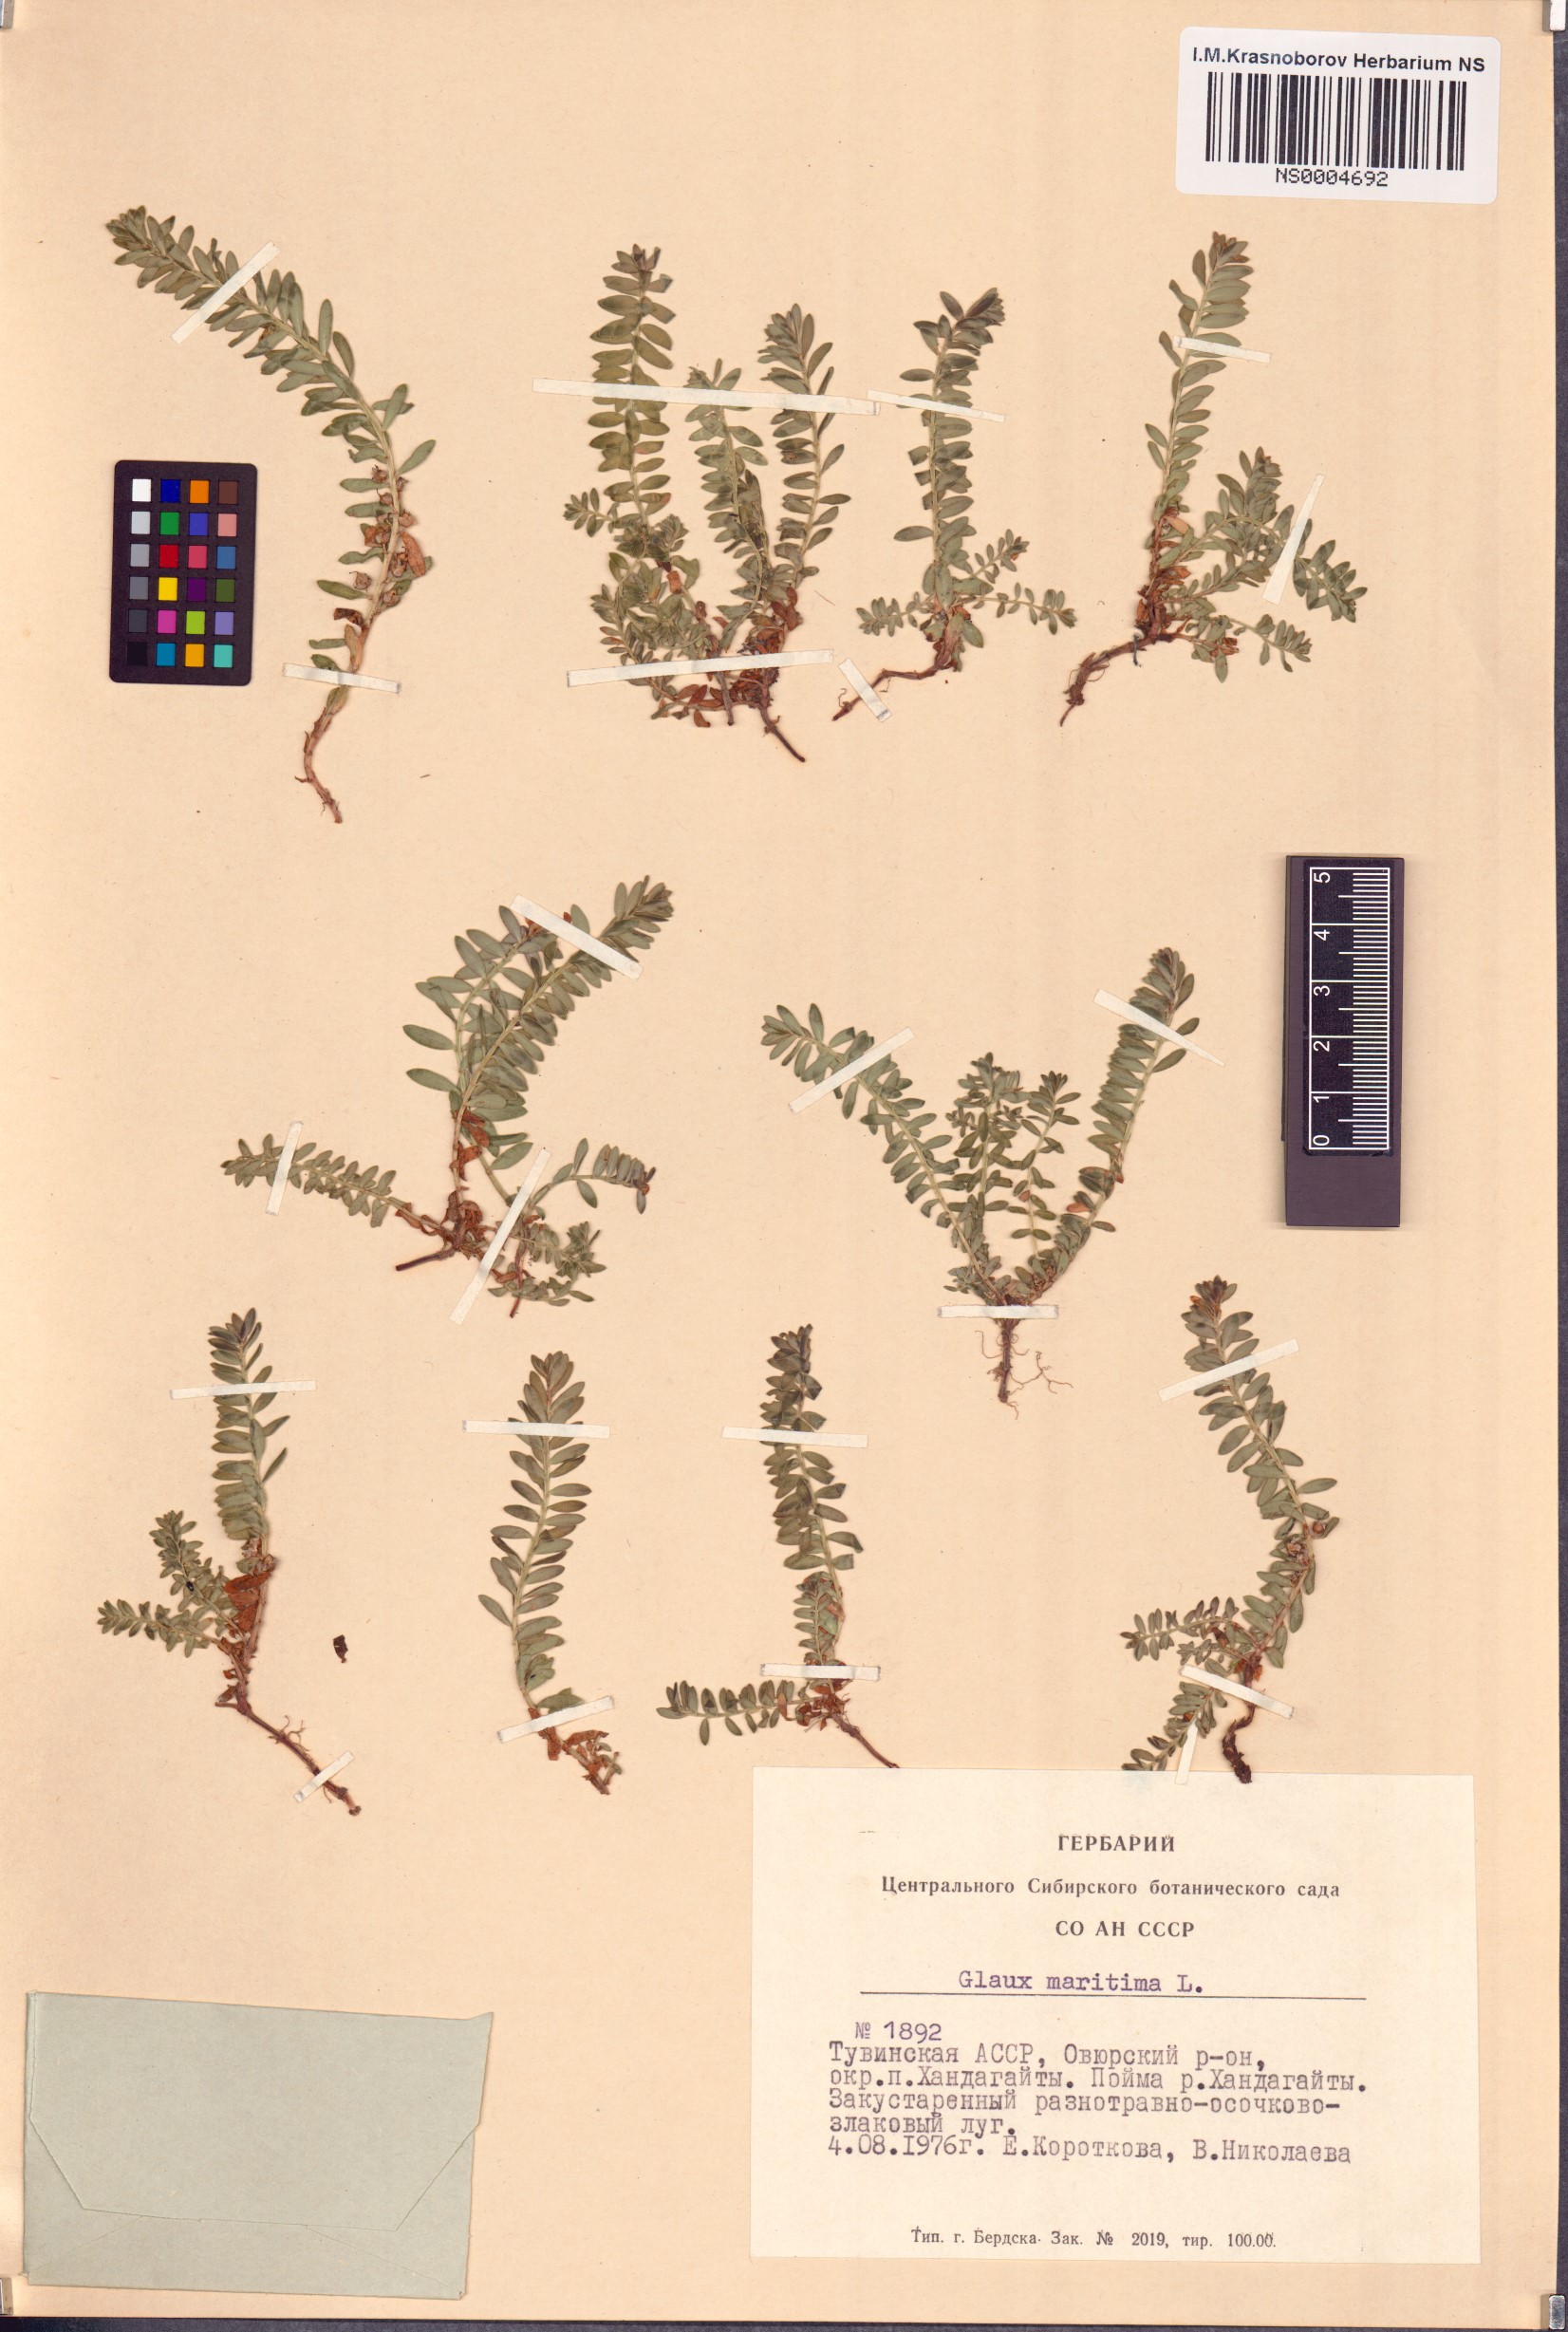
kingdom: Plantae
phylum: Tracheophyta
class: Magnoliopsida
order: Ericales
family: Primulaceae
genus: Lysimachia
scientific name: Lysimachia maritima
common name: Sea milkwort
